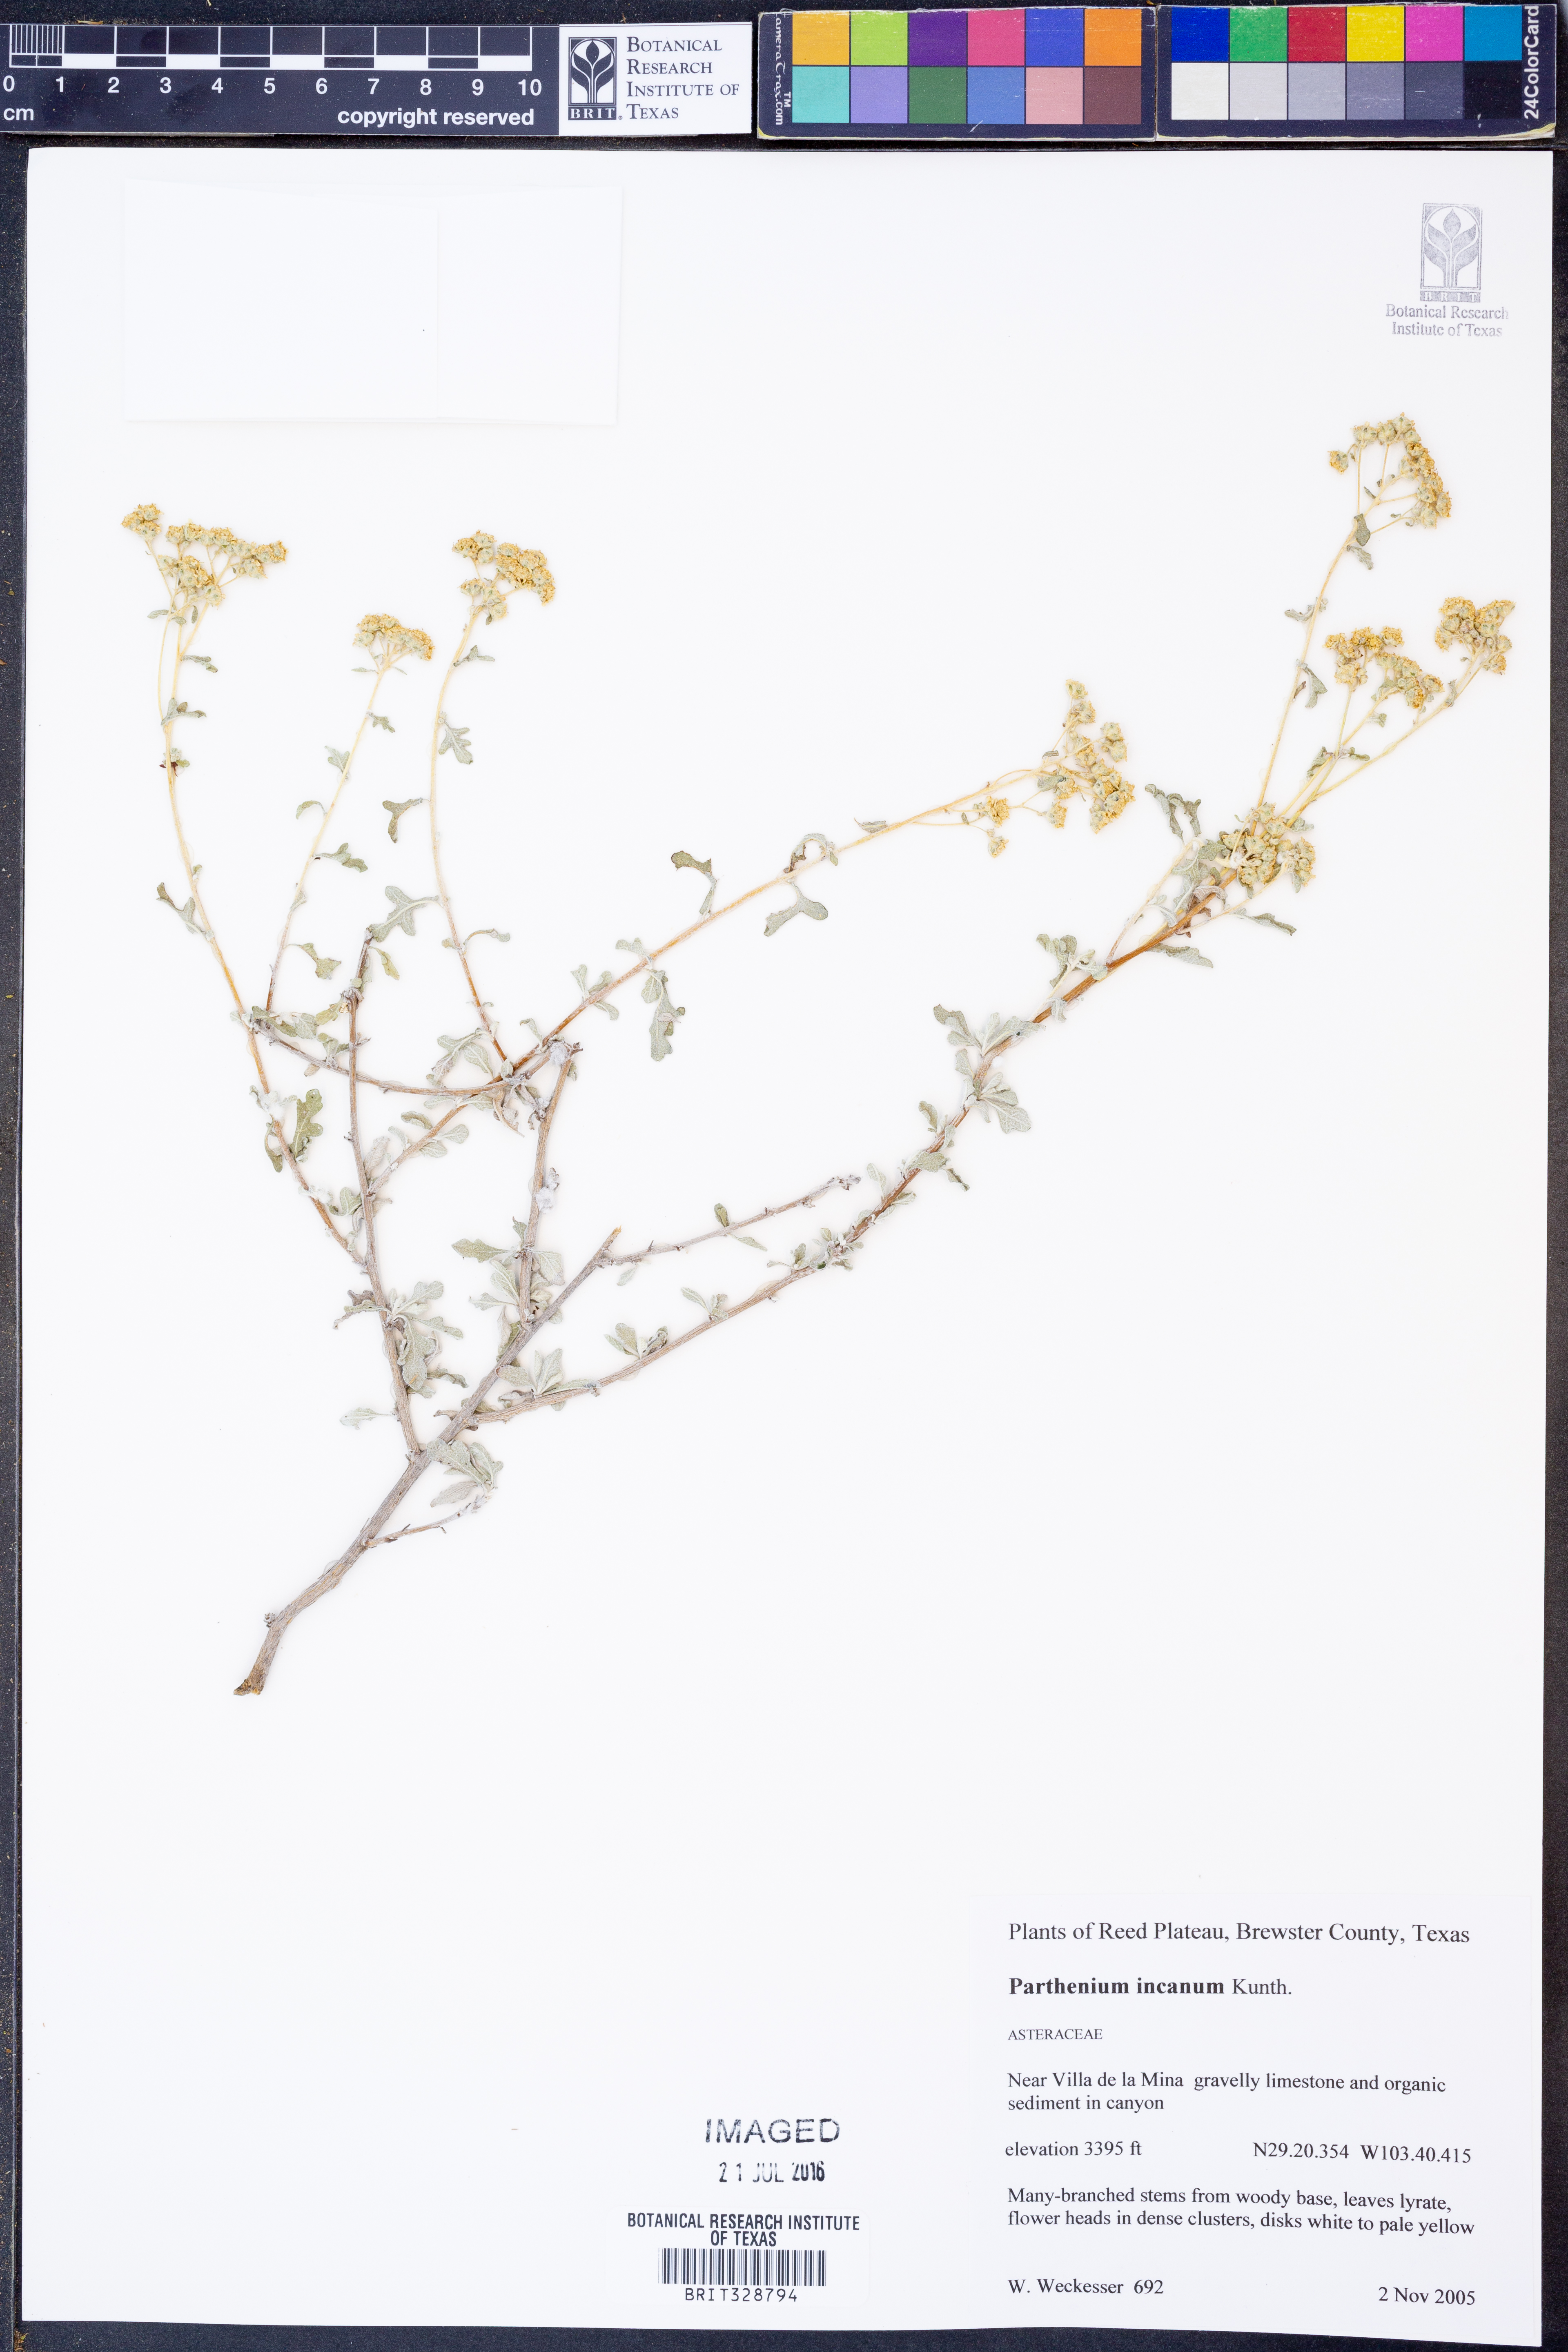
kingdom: Plantae
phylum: Tracheophyta
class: Magnoliopsida
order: Asterales
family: Asteraceae
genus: Parthenium
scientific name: Parthenium incanum
